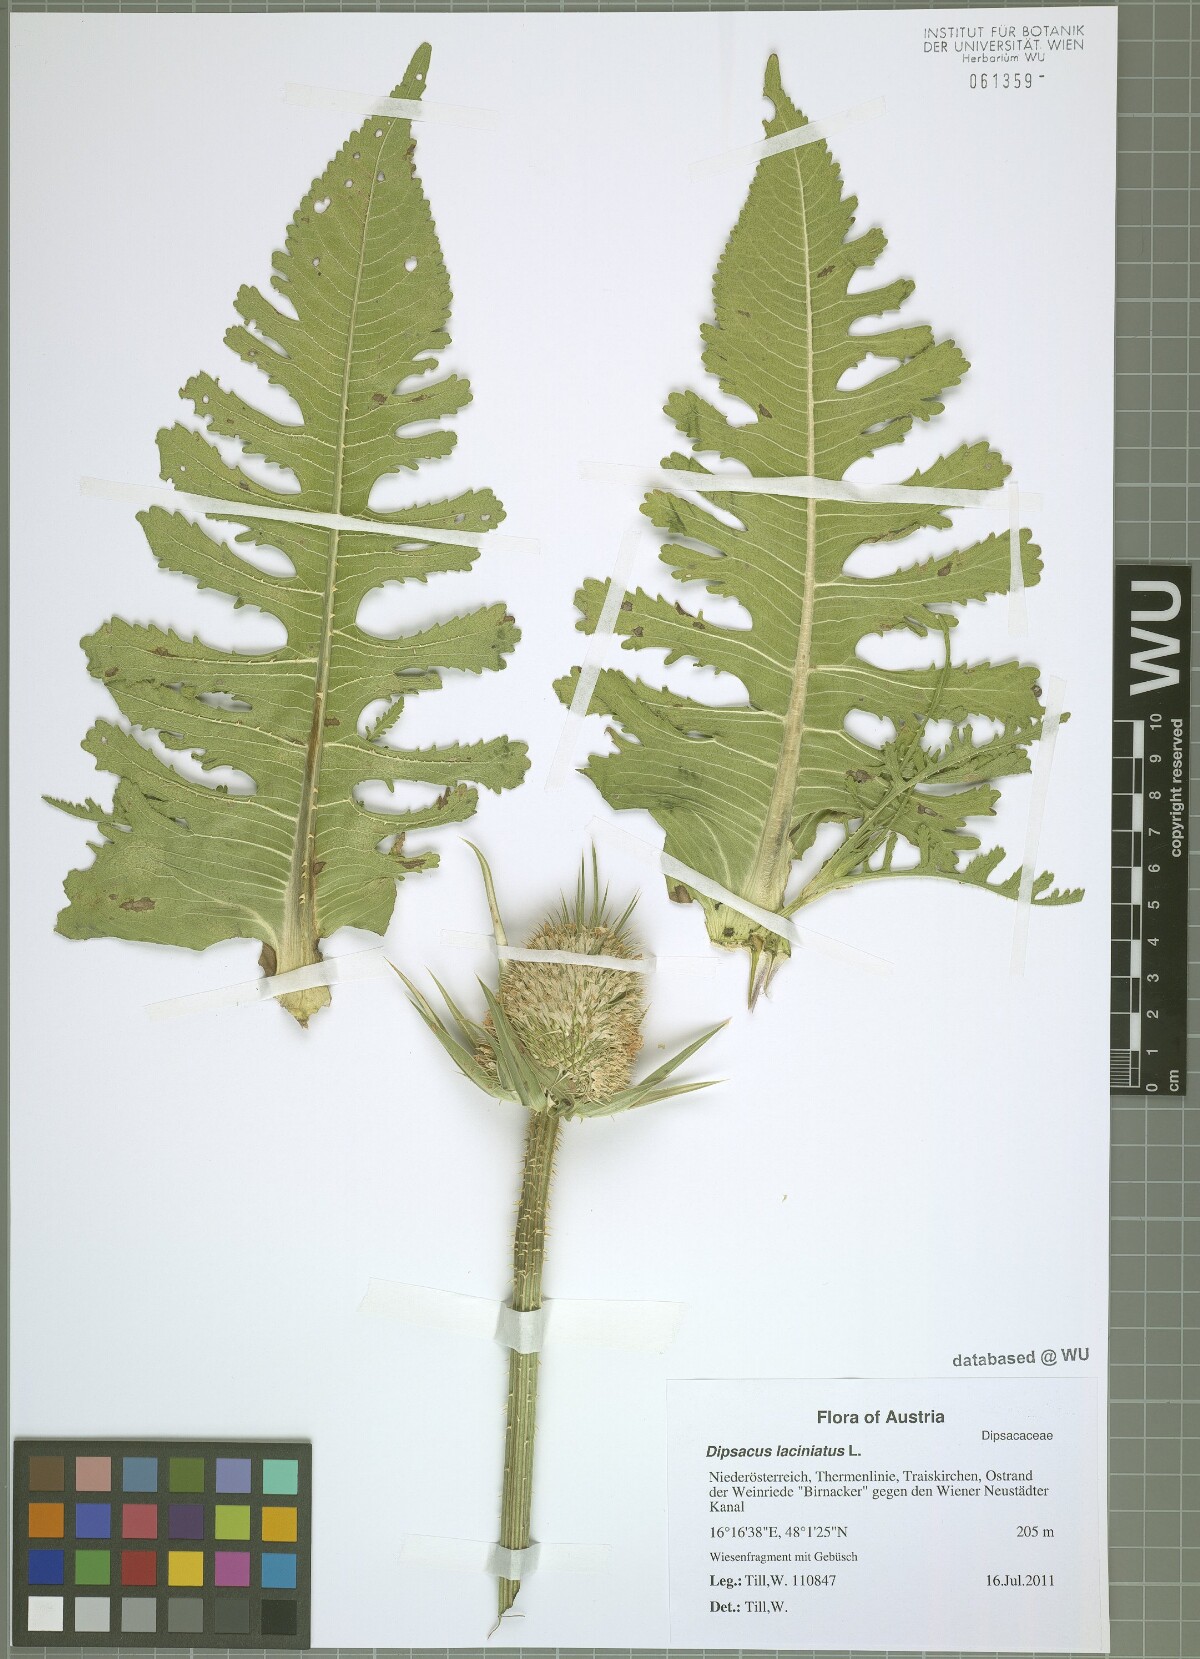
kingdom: Plantae
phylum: Tracheophyta
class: Magnoliopsida
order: Dipsacales
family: Caprifoliaceae
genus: Dipsacus
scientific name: Dipsacus laciniatus
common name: Cut-leaved teasel
